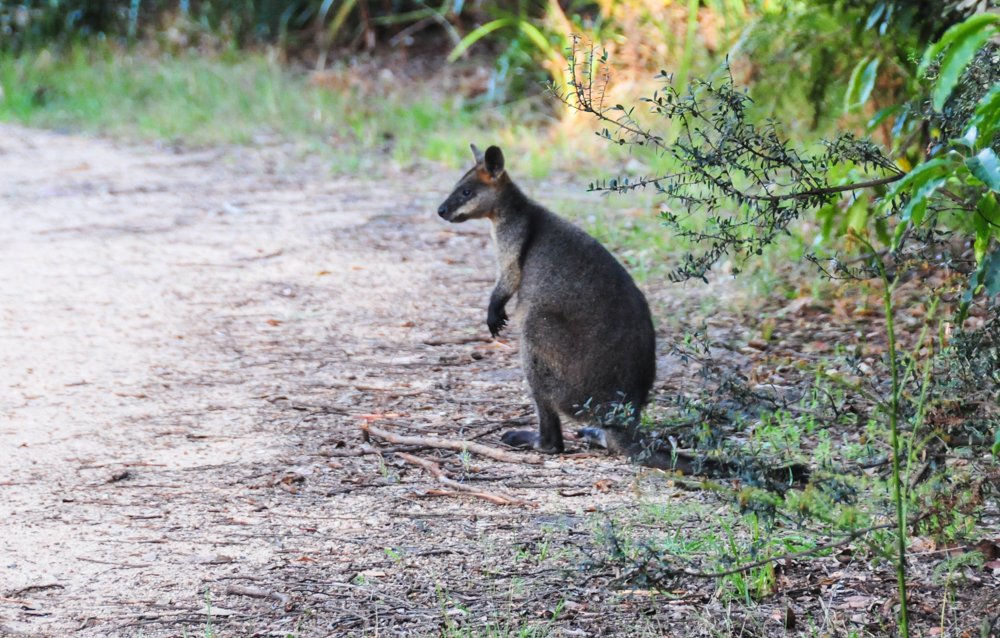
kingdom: Animalia
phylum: Chordata
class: Mammalia
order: Diprotodontia
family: Macropodidae
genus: Wallabia
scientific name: Wallabia bicolor
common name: Swamp wallaby
